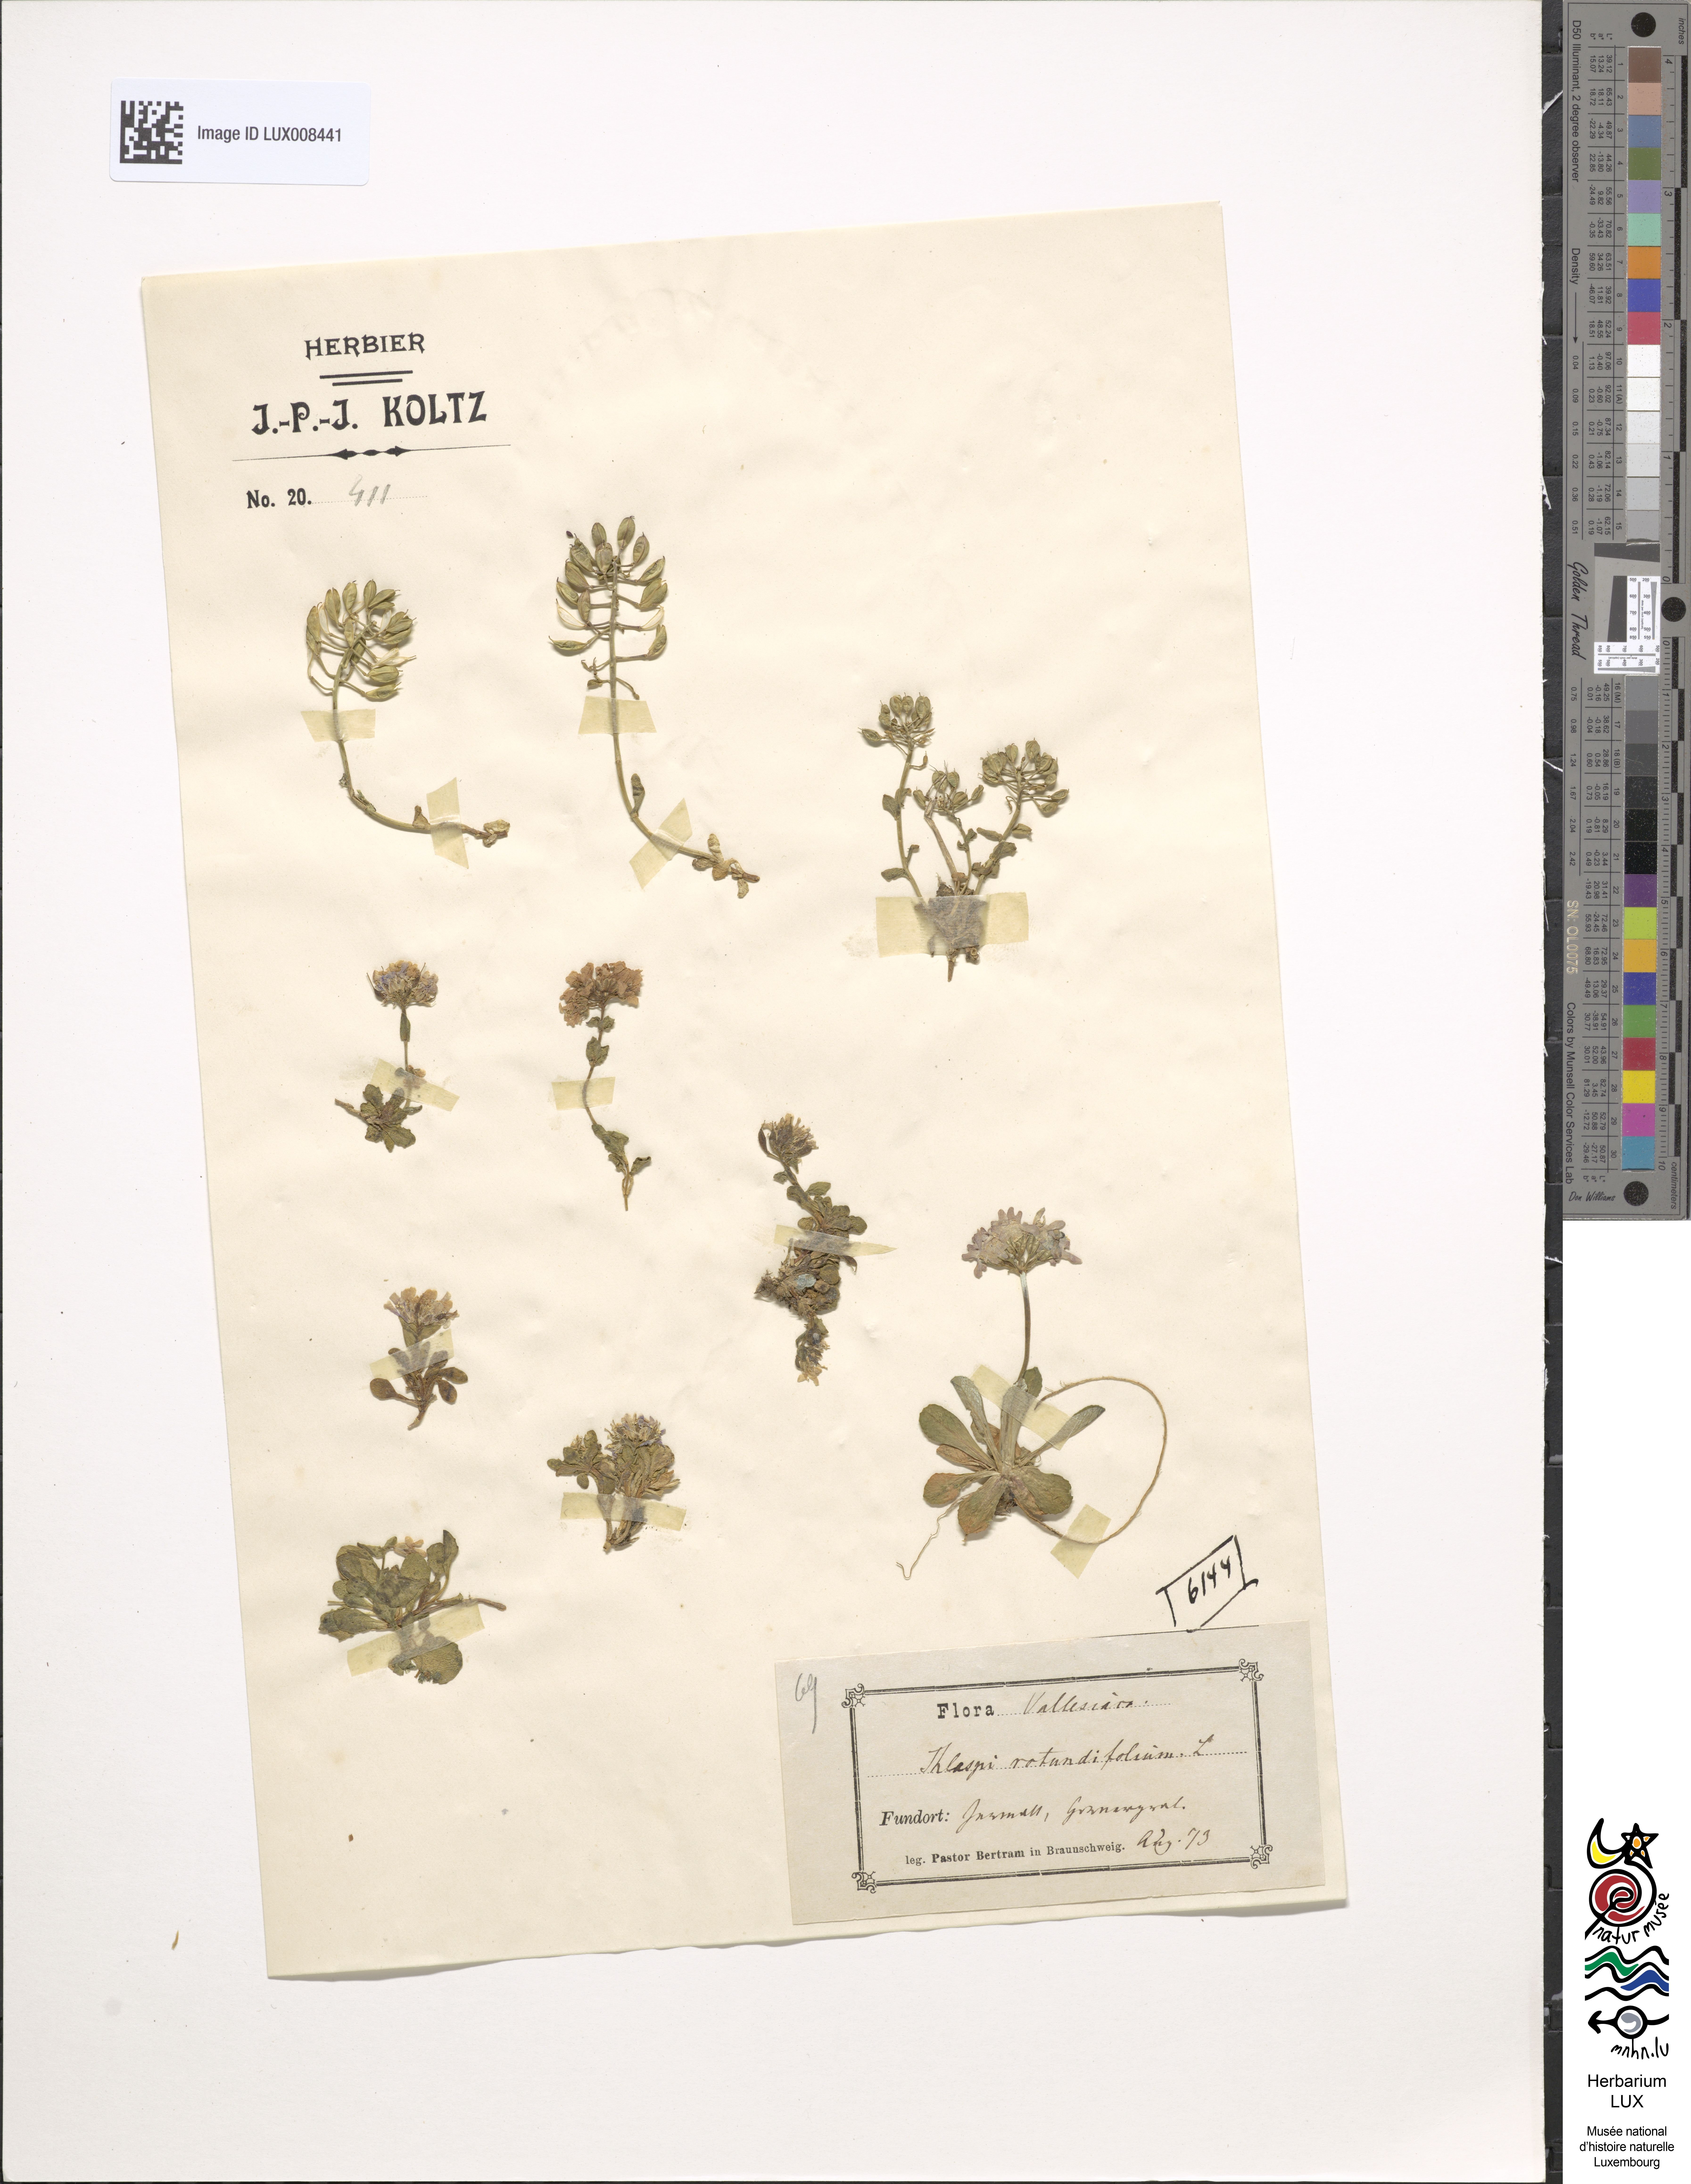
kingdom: Plantae
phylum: Tracheophyta
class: Magnoliopsida
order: Brassicales
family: Brassicaceae
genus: Noccaea
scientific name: Noccaea rotundifolia
